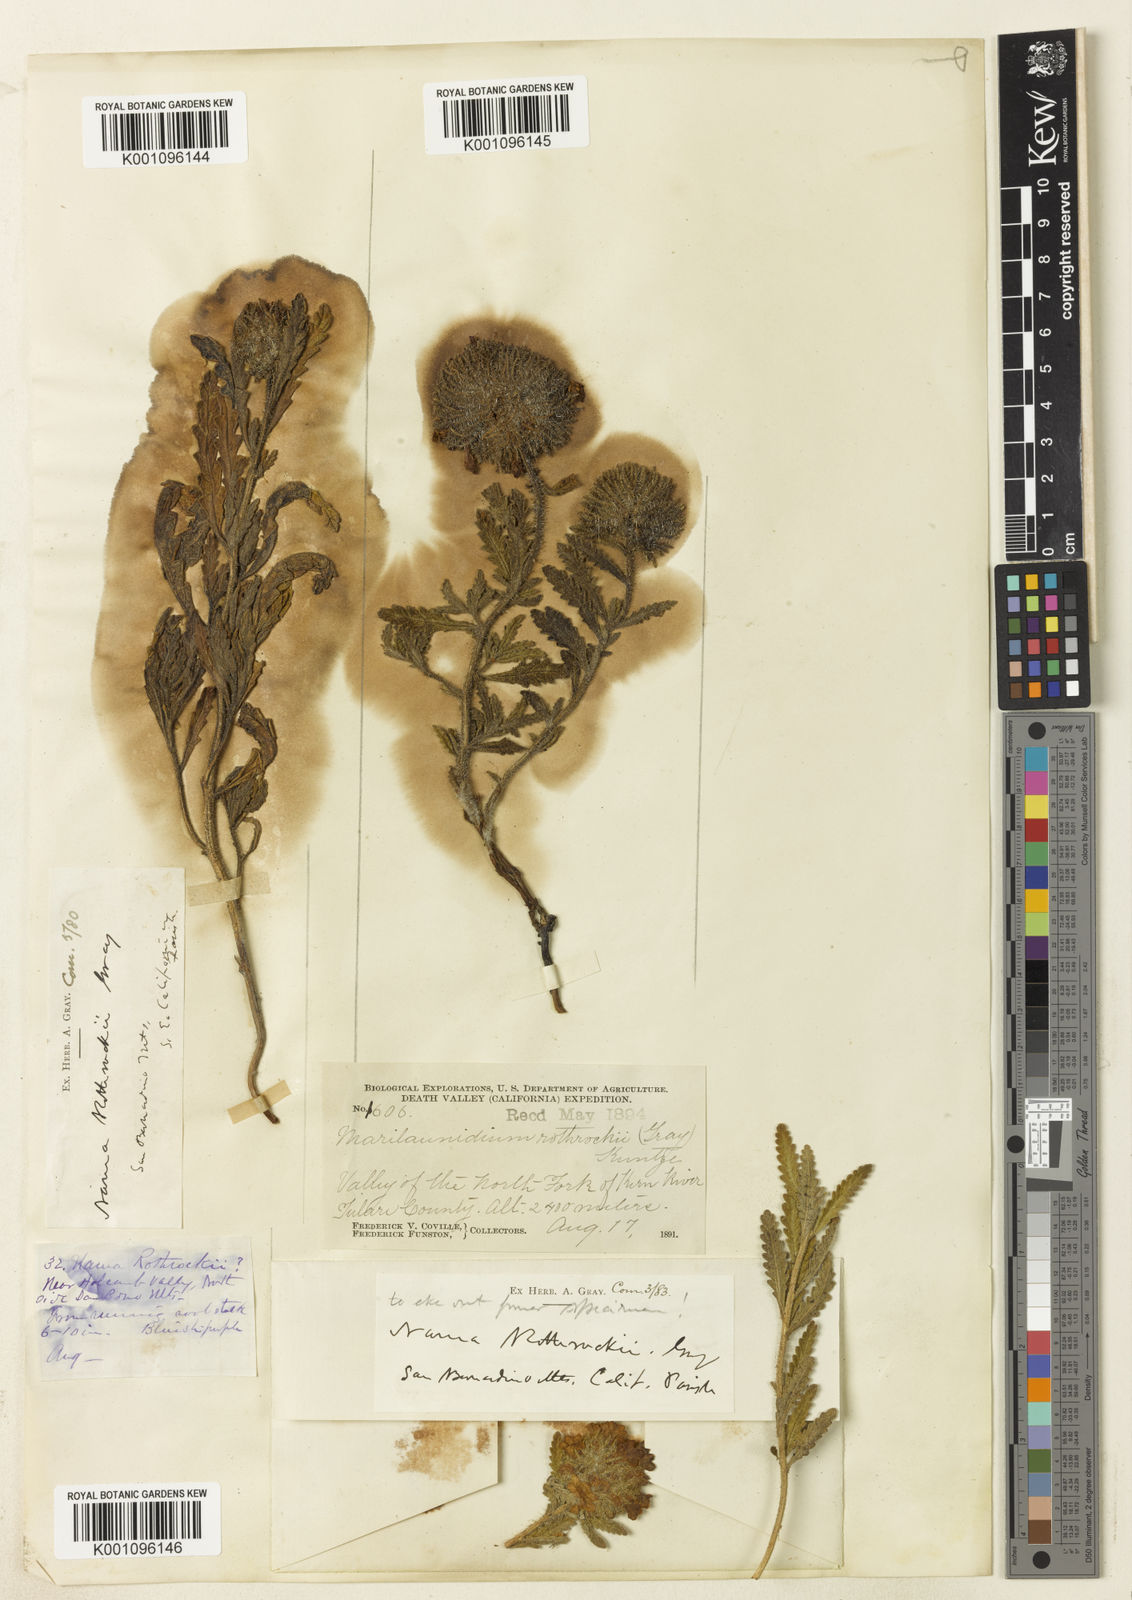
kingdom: Plantae
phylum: Tracheophyta
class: Magnoliopsida
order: Boraginales
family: Namaceae
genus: Nama
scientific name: Nama rothrockii
